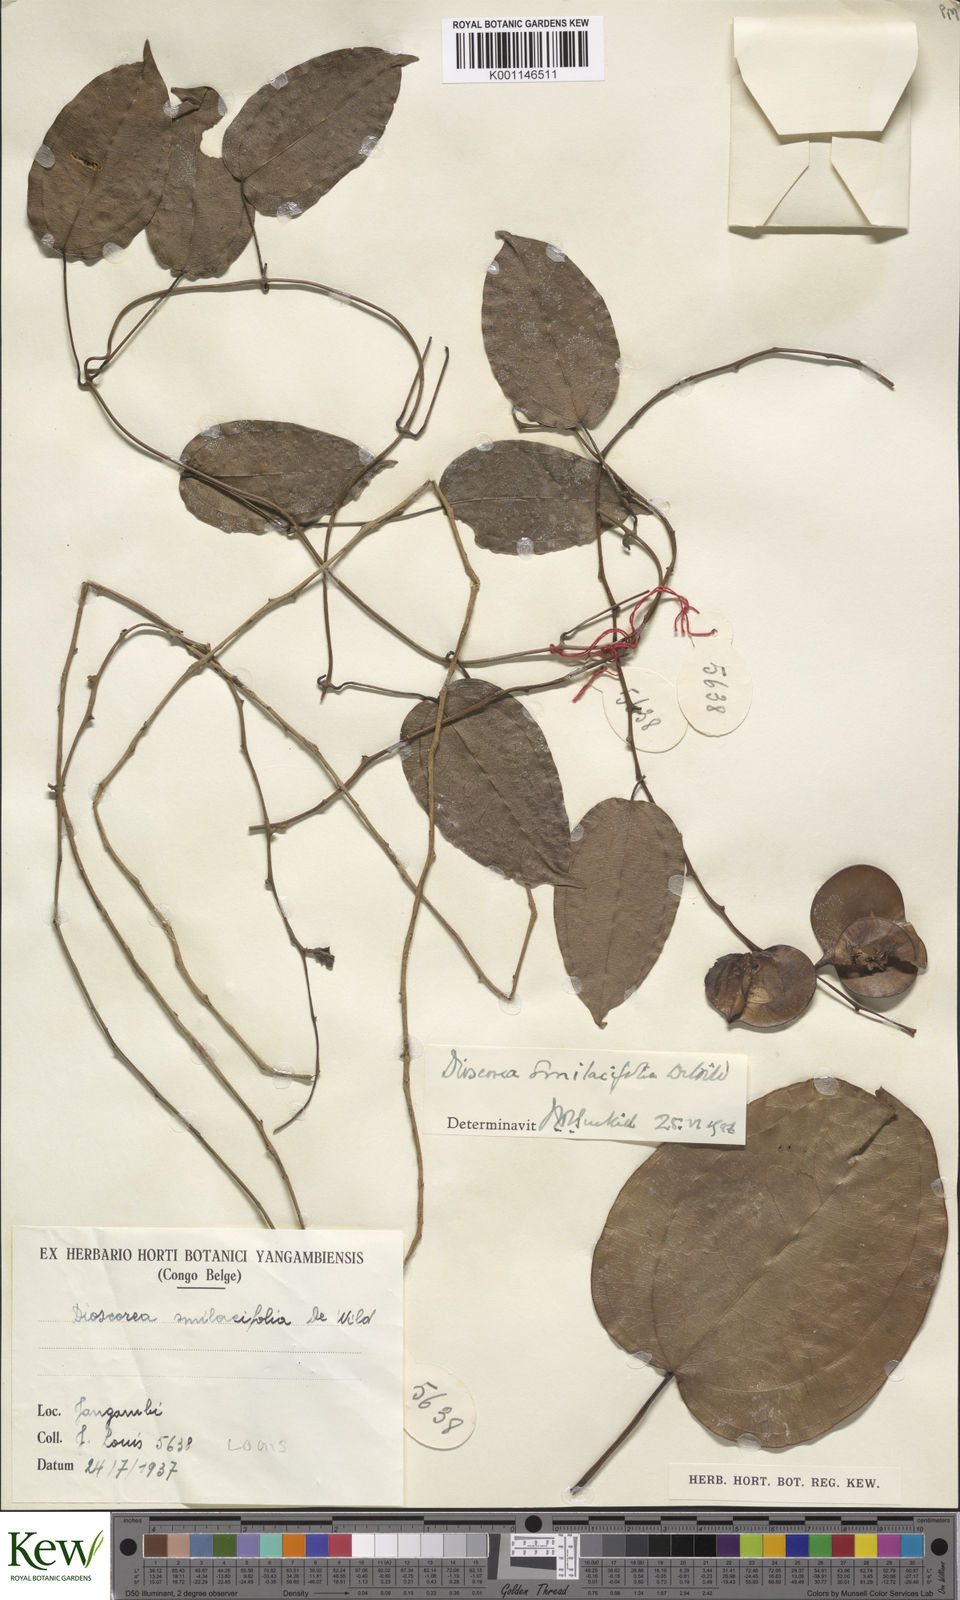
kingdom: Plantae
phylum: Tracheophyta
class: Liliopsida
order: Dioscoreales
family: Dioscoreaceae
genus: Dioscorea
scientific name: Dioscorea smilacifolia
